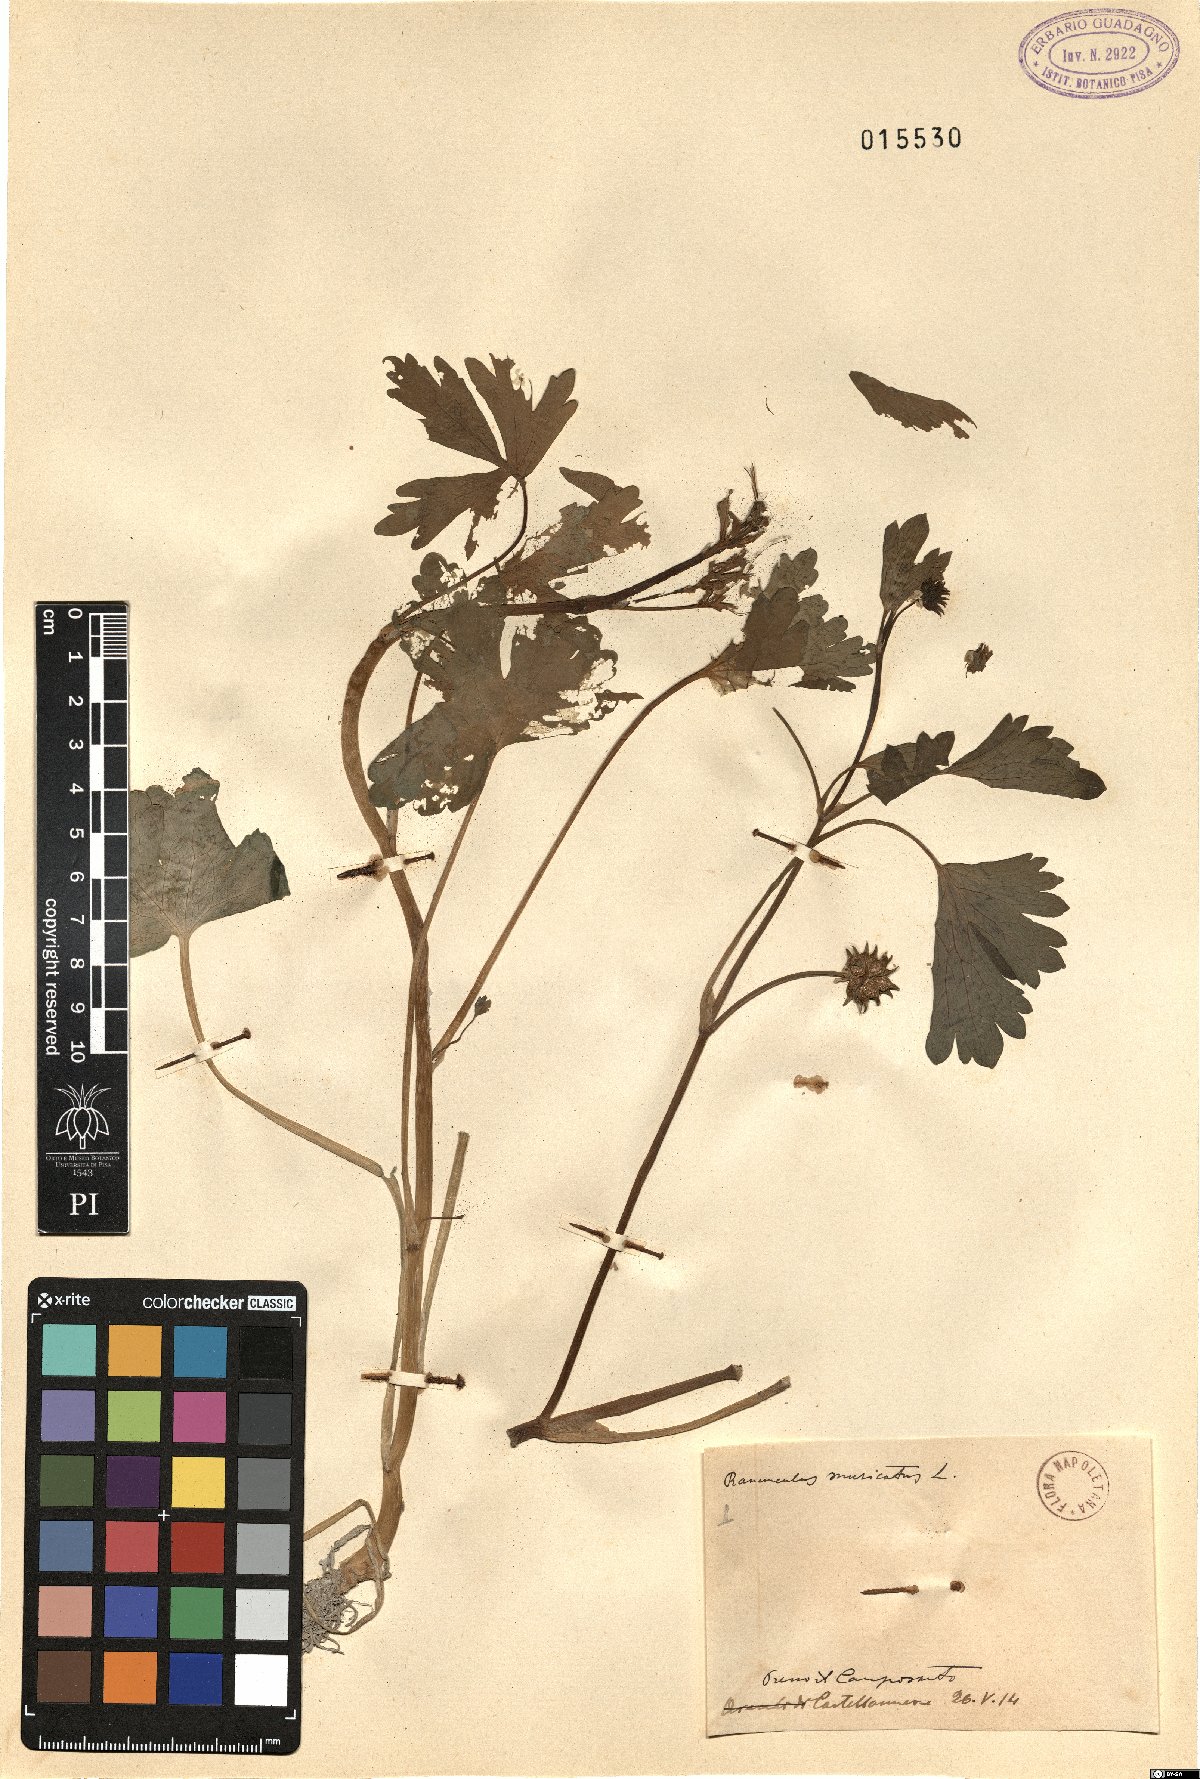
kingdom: Plantae
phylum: Tracheophyta
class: Magnoliopsida
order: Ranunculales
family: Ranunculaceae
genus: Ranunculus
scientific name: Ranunculus muricatus
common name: Rough-fruited buttercup
